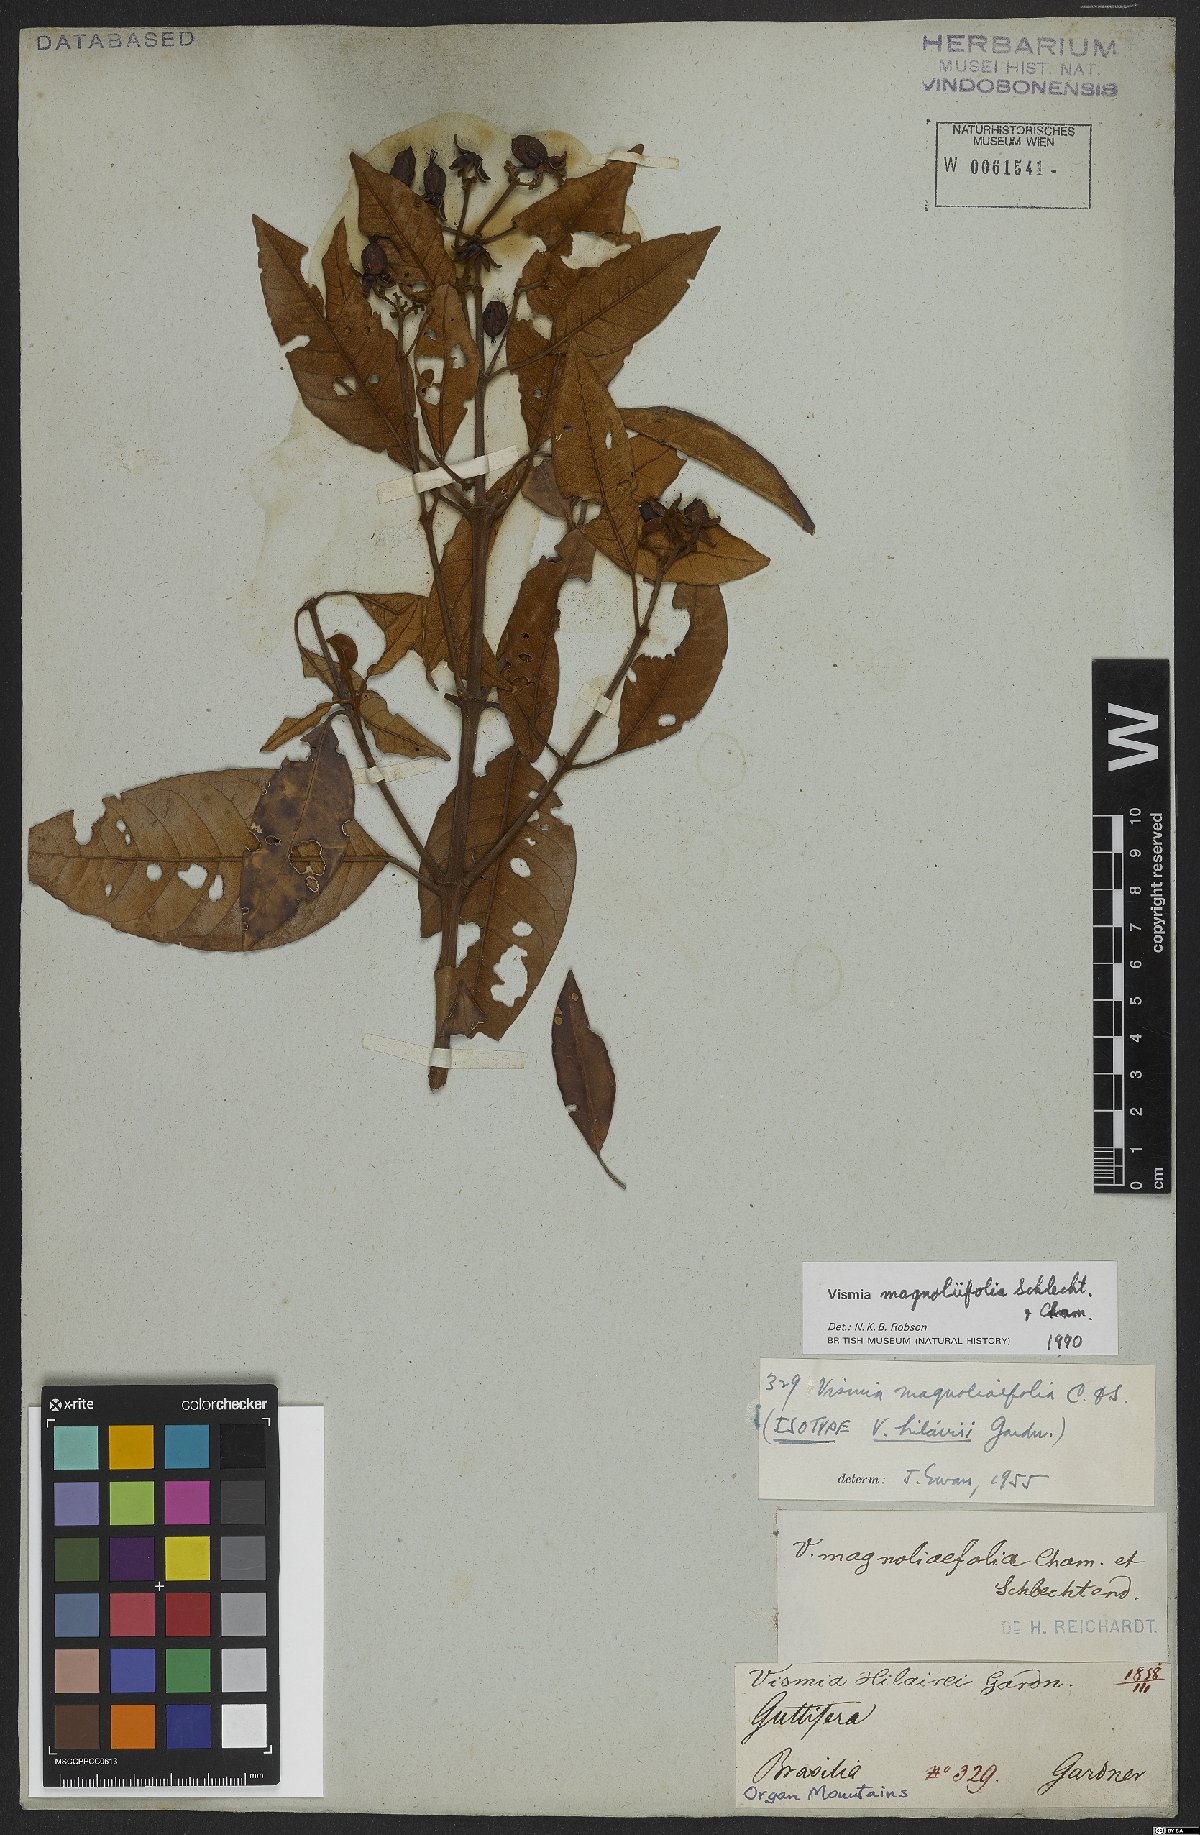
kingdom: Plantae
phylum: Tracheophyta
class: Magnoliopsida
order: Malpighiales
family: Hypericaceae
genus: Vismia
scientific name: Vismia magnoliifolia
